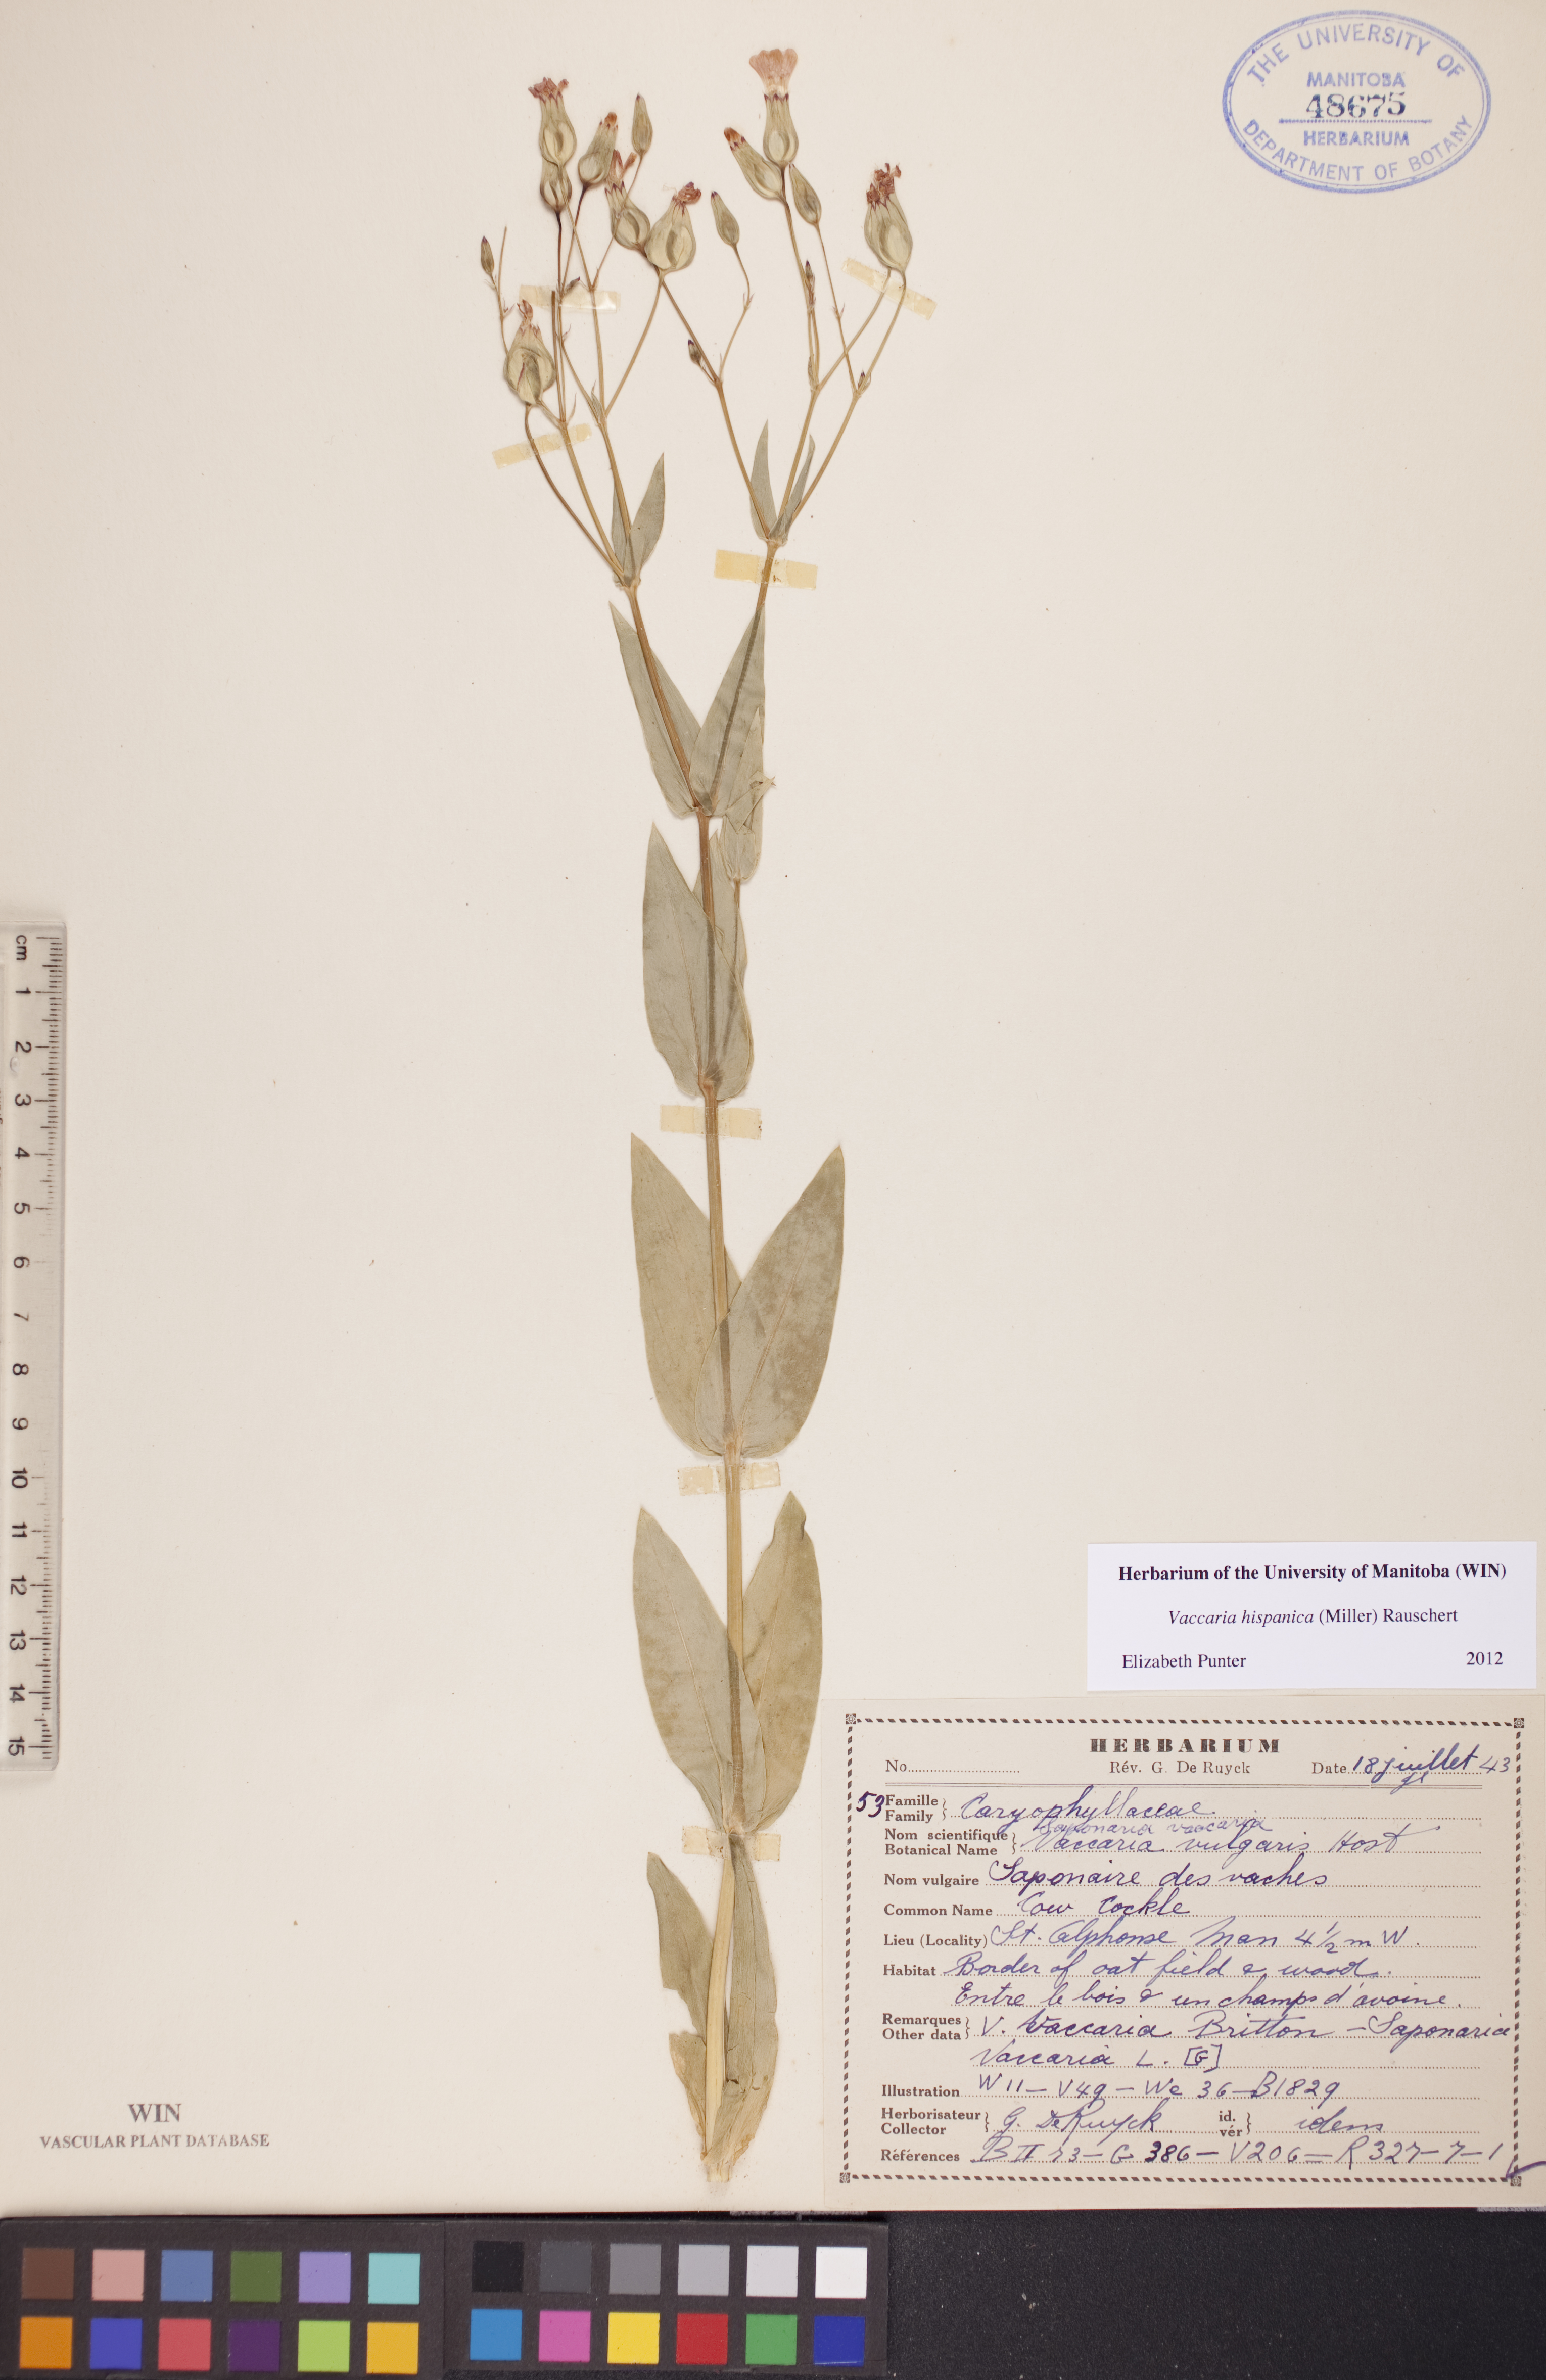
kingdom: Plantae
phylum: Tracheophyta
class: Magnoliopsida
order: Caryophyllales
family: Caryophyllaceae
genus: Gypsophila
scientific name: Gypsophila vaccaria
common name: Cow soapwort
